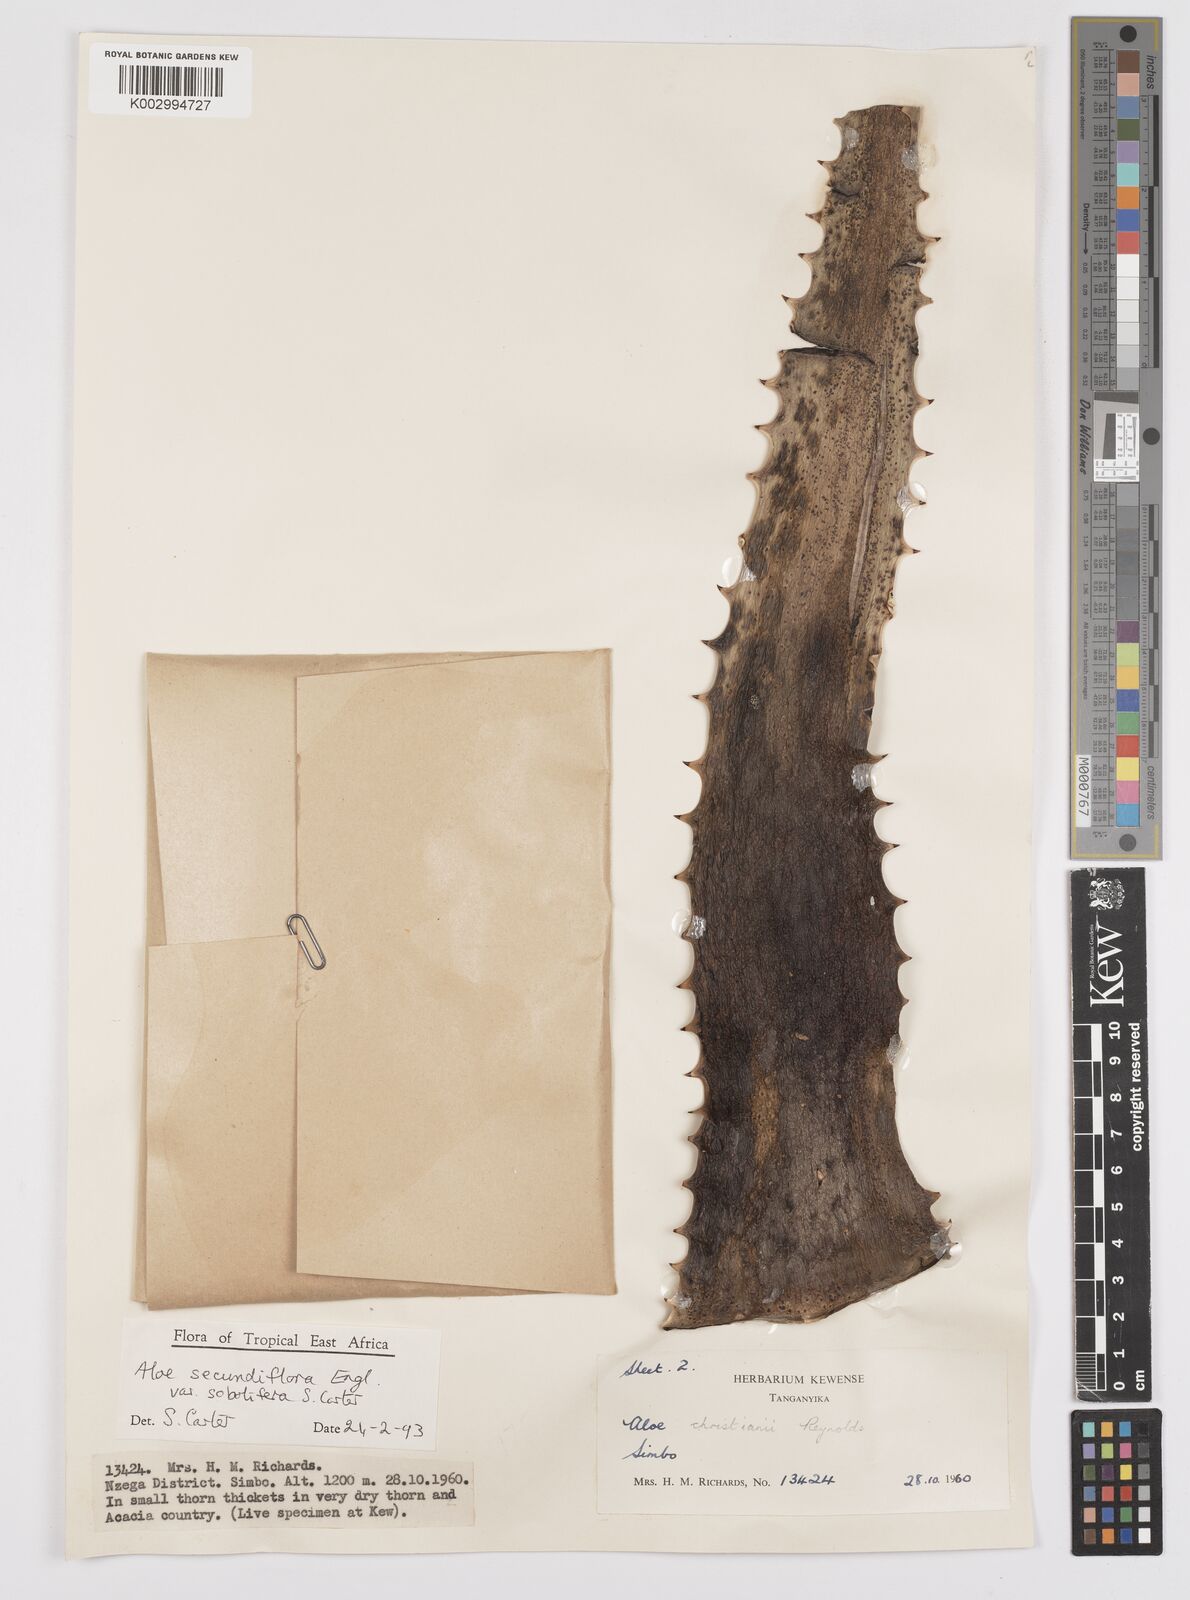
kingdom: Plantae
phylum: Tracheophyta
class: Liliopsida
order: Asparagales
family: Asphodelaceae
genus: Aloe
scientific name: Aloe sobolifera
